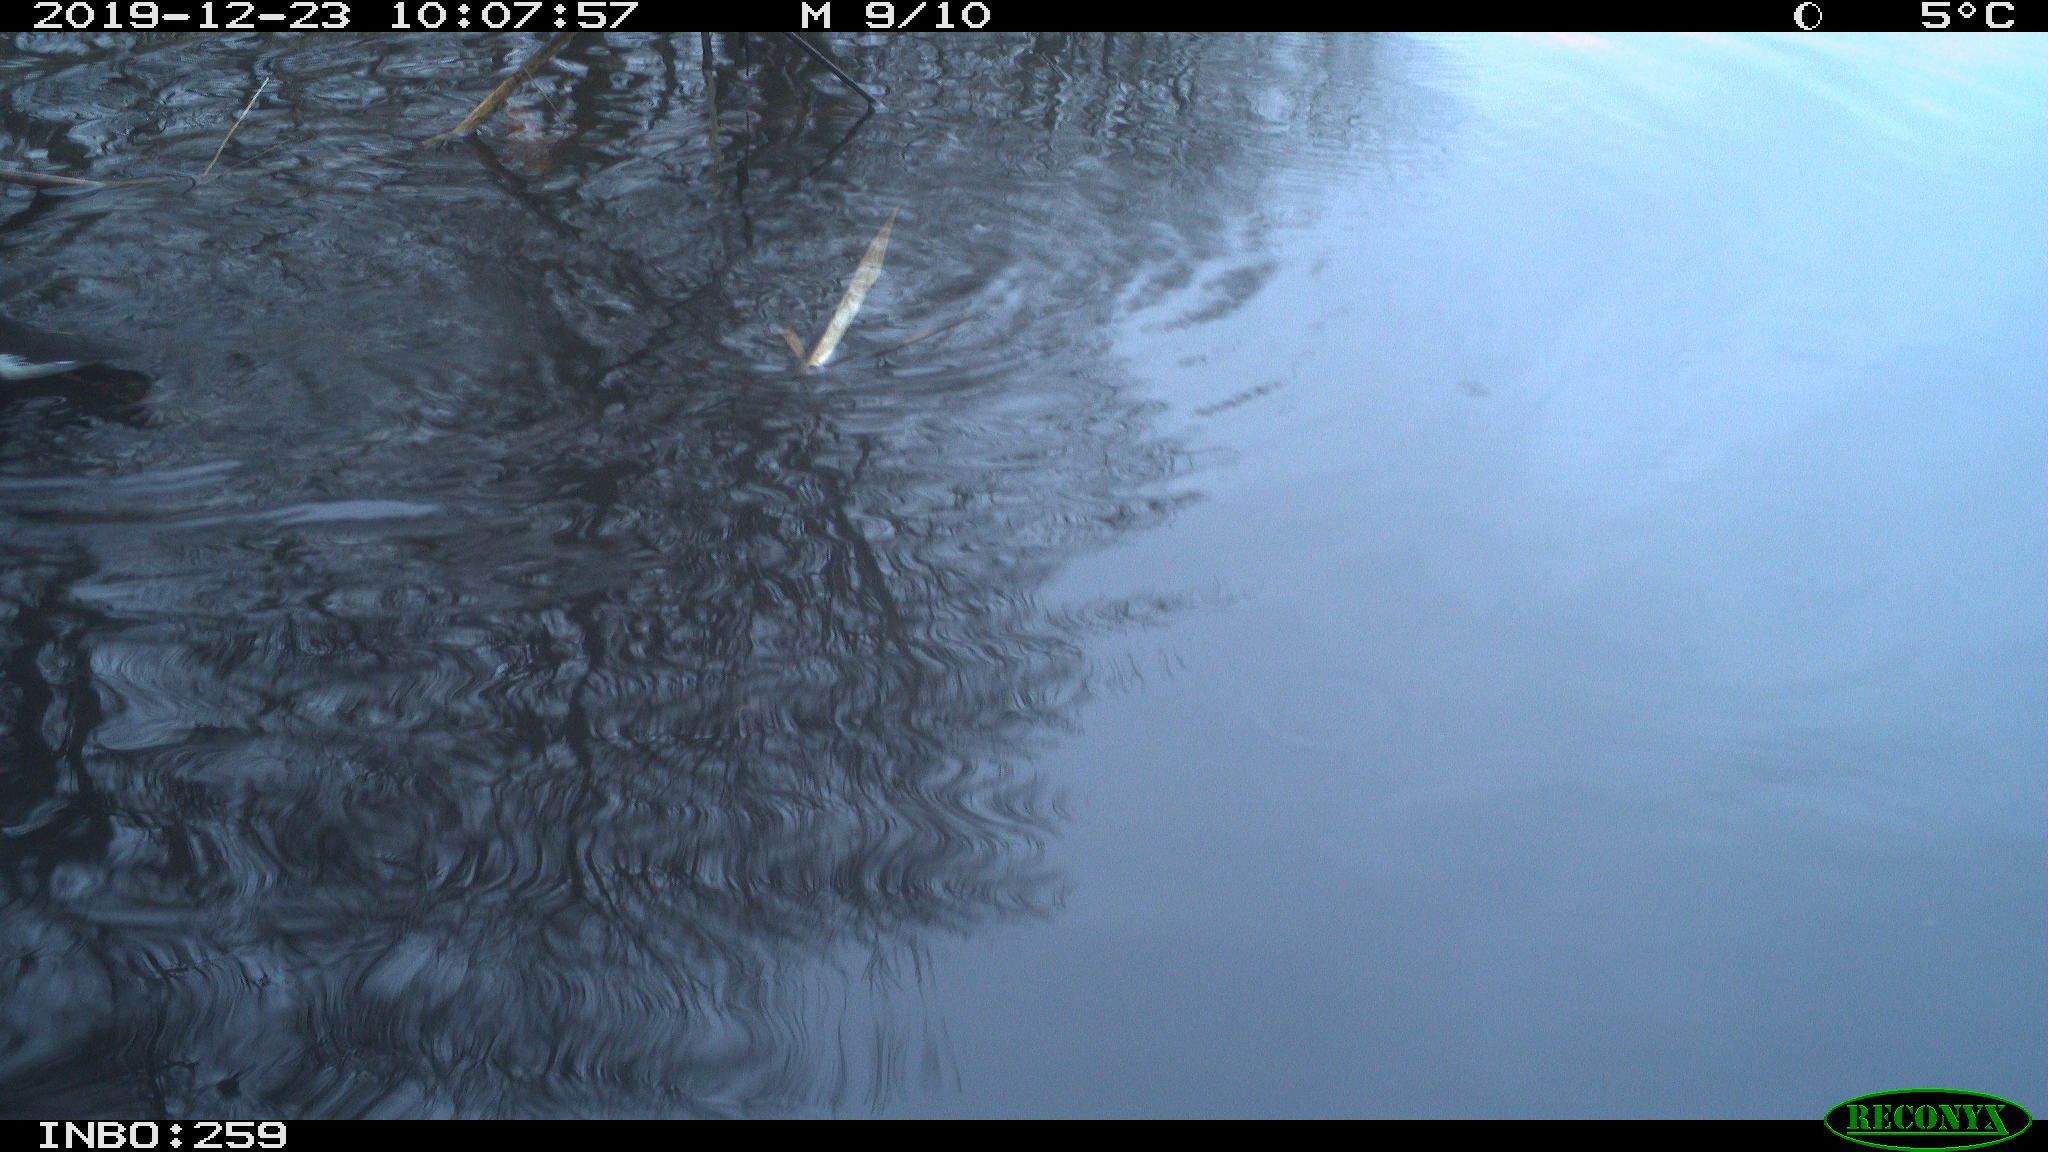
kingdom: Animalia
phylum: Chordata
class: Aves
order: Gruiformes
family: Rallidae
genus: Gallinula
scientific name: Gallinula chloropus
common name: Common moorhen
